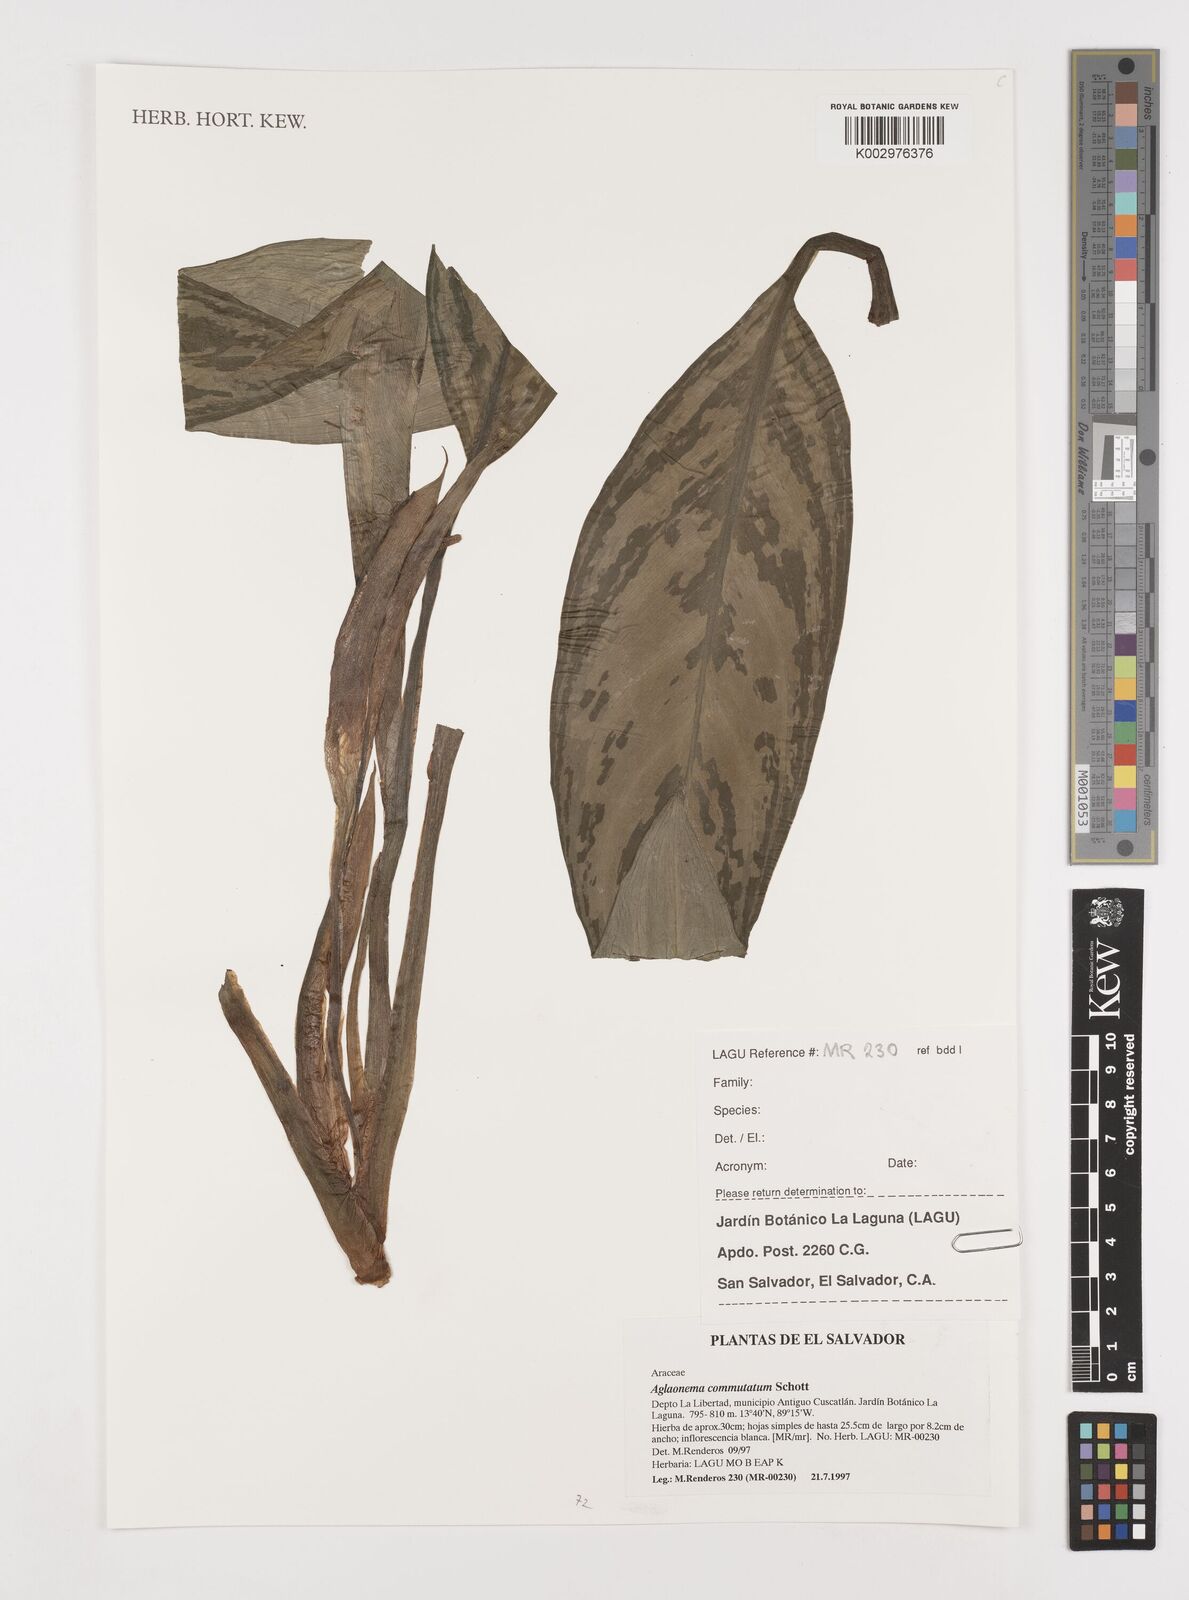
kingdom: Plantae
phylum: Tracheophyta
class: Liliopsida
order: Alismatales
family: Araceae
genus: Aglaonema
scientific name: Aglaonema commutatum
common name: Philippine evergreen
